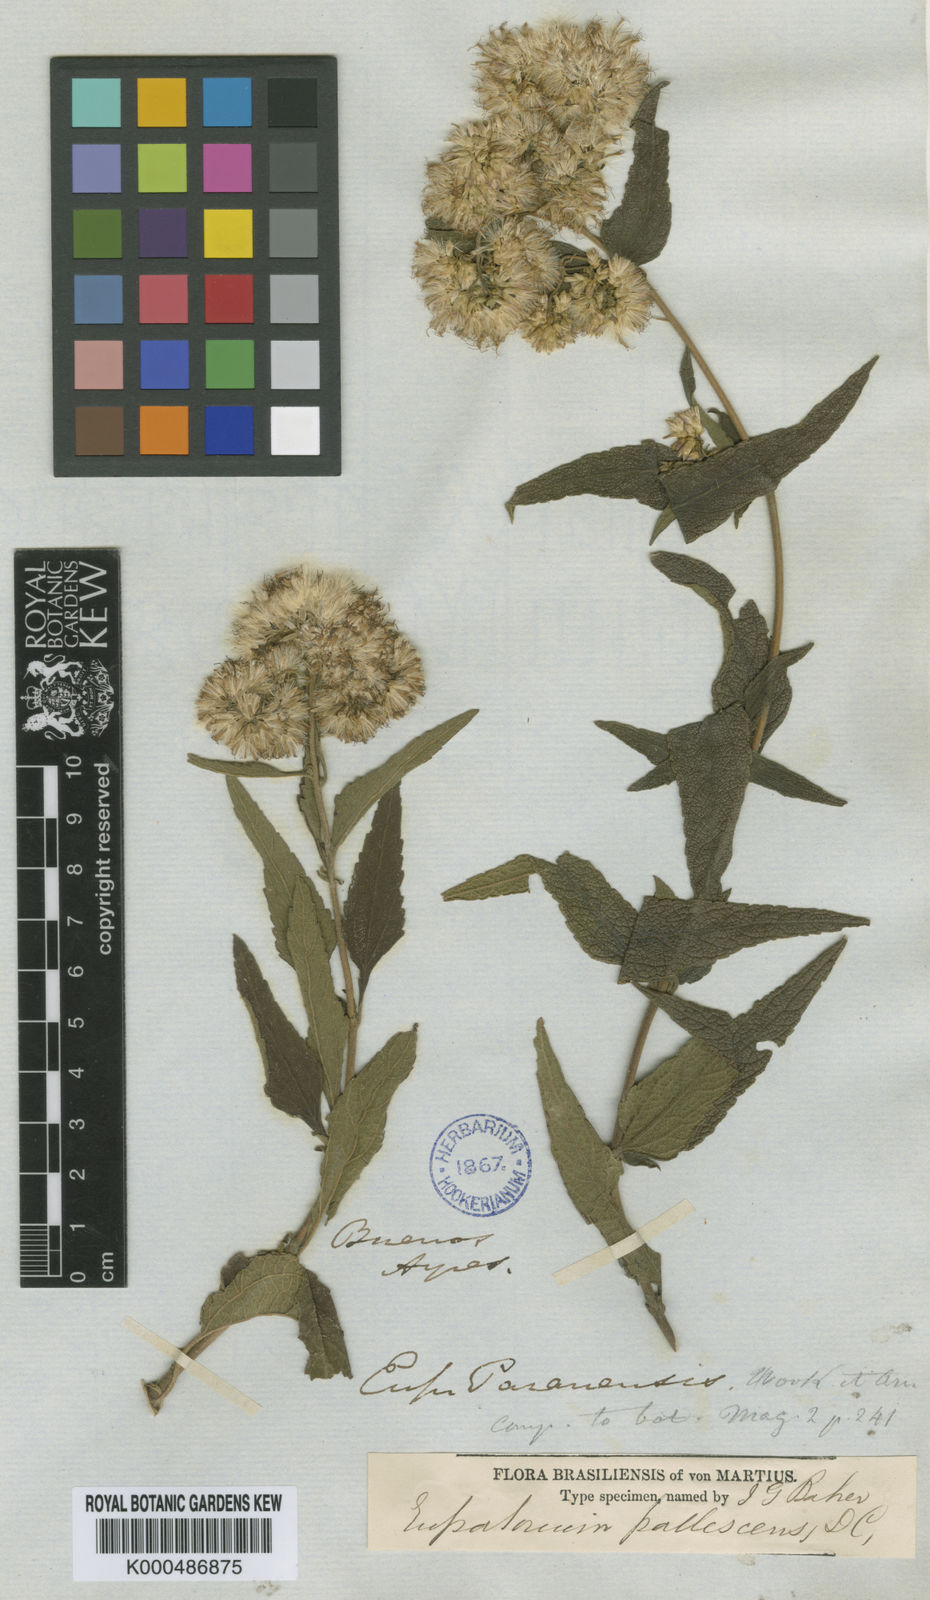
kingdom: Plantae
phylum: Tracheophyta
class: Magnoliopsida
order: Asterales
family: Asteraceae
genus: Chromolaena
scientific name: Chromolaena
